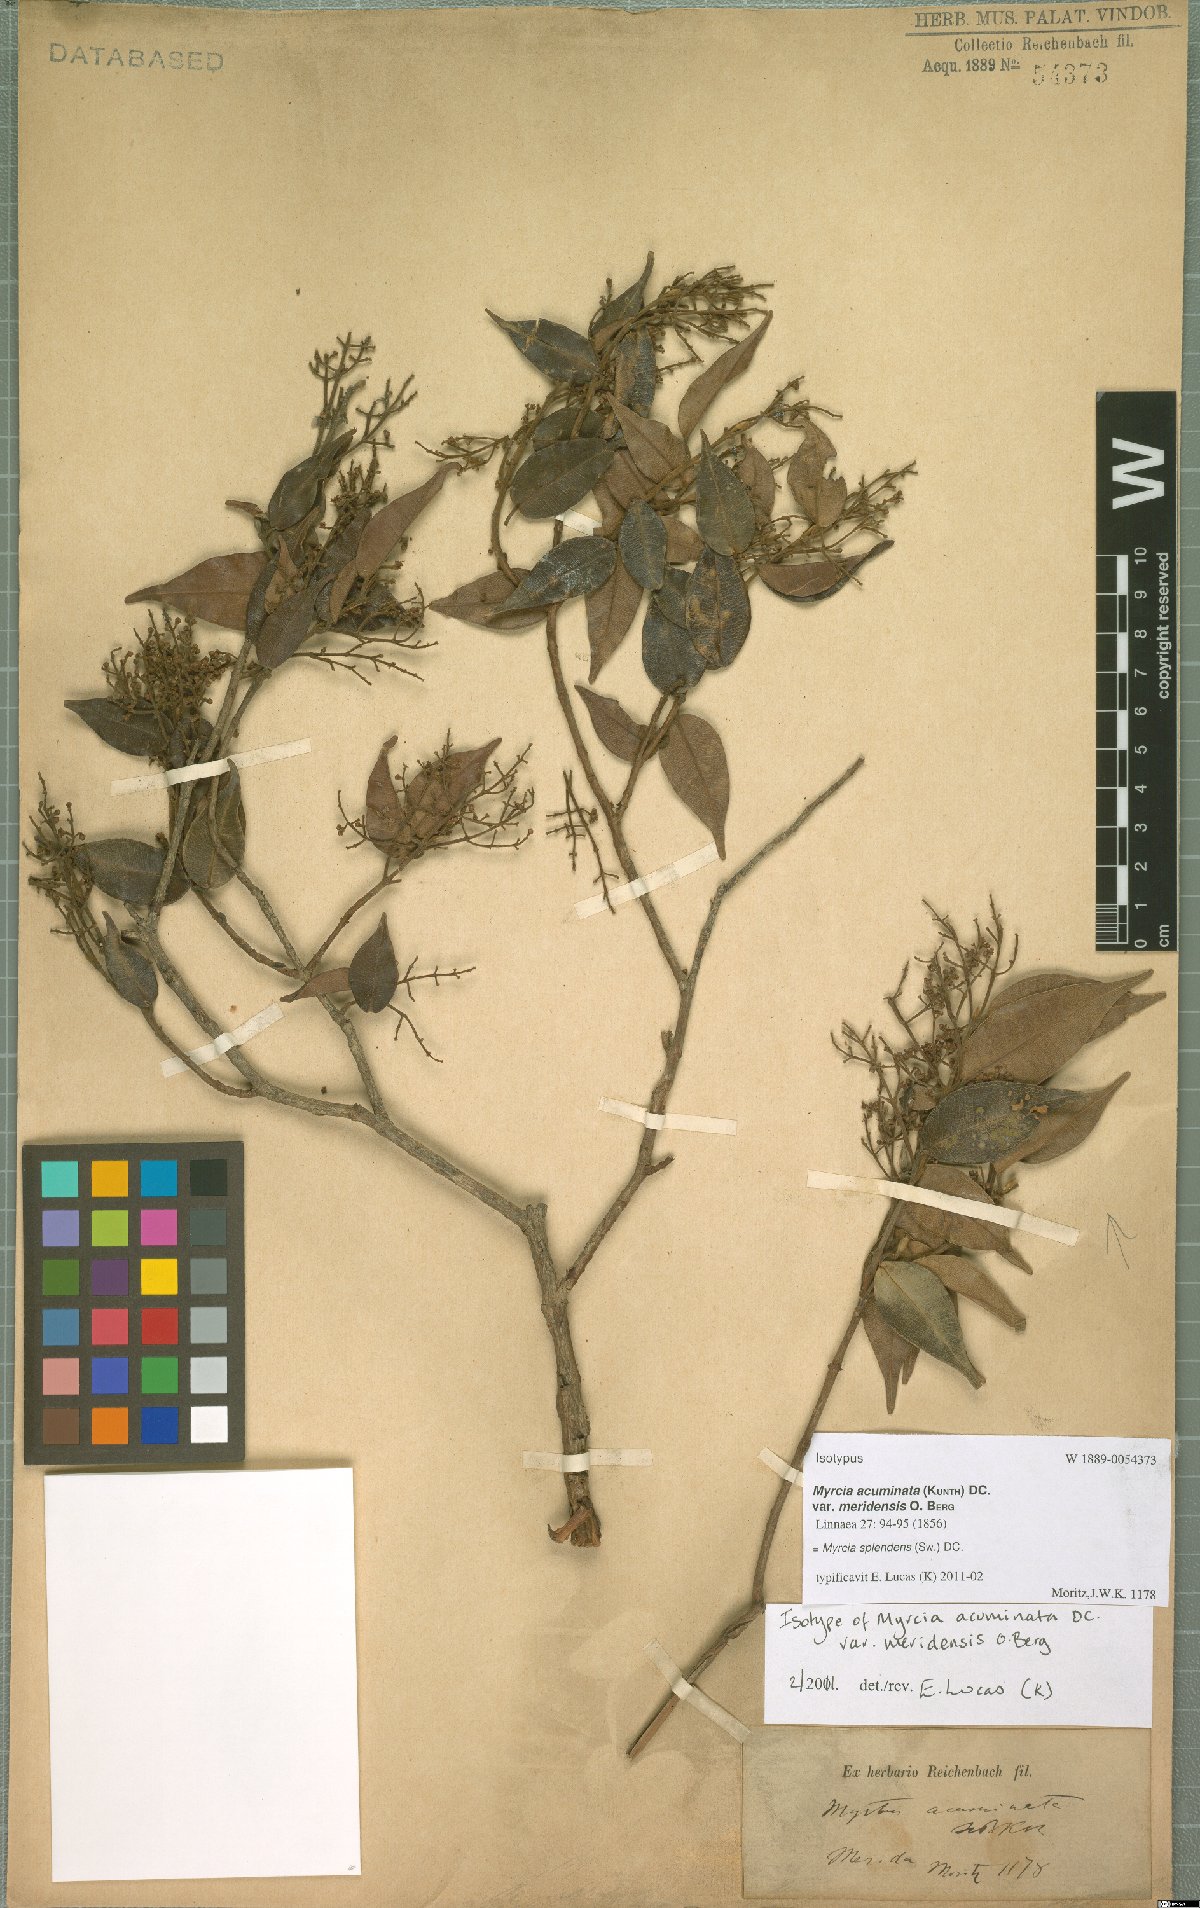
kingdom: Plantae
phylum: Tracheophyta
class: Magnoliopsida
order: Myrtales
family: Myrtaceae
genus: Myrcia
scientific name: Myrcia splendens
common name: Surinam cherry
